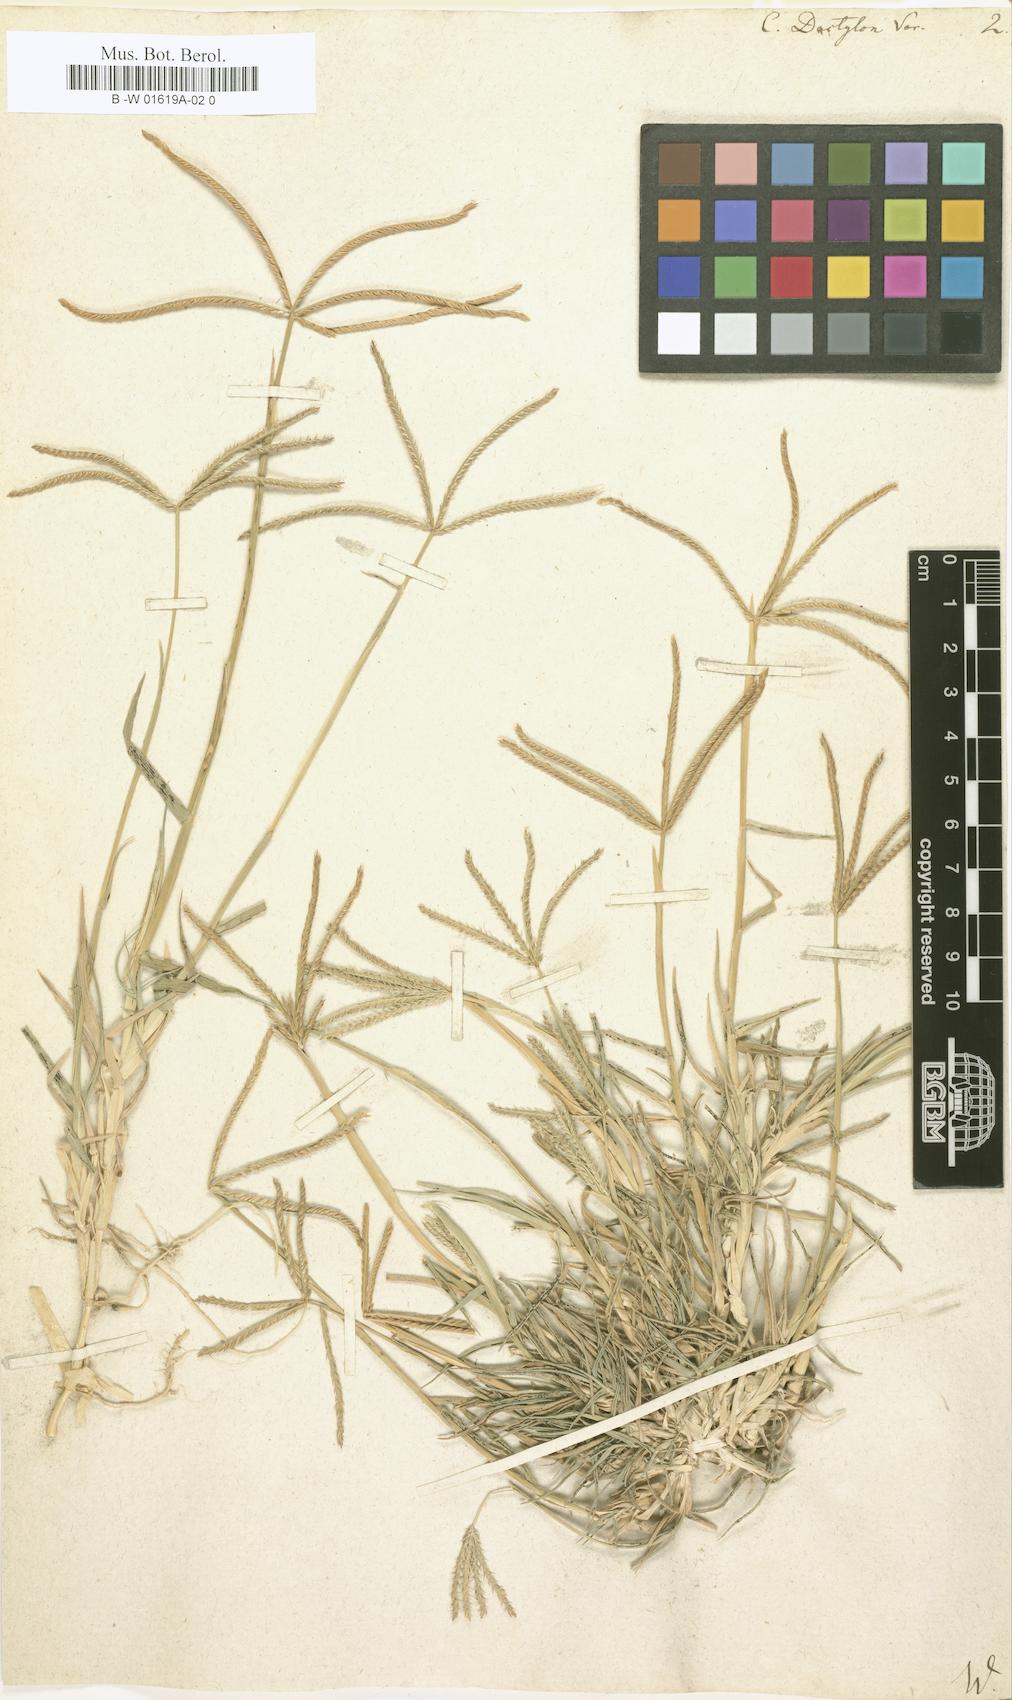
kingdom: Plantae
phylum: Tracheophyta
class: Liliopsida
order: Poales
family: Poaceae
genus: Cynodon
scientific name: Cynodon dactylon
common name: Bermuda grass
